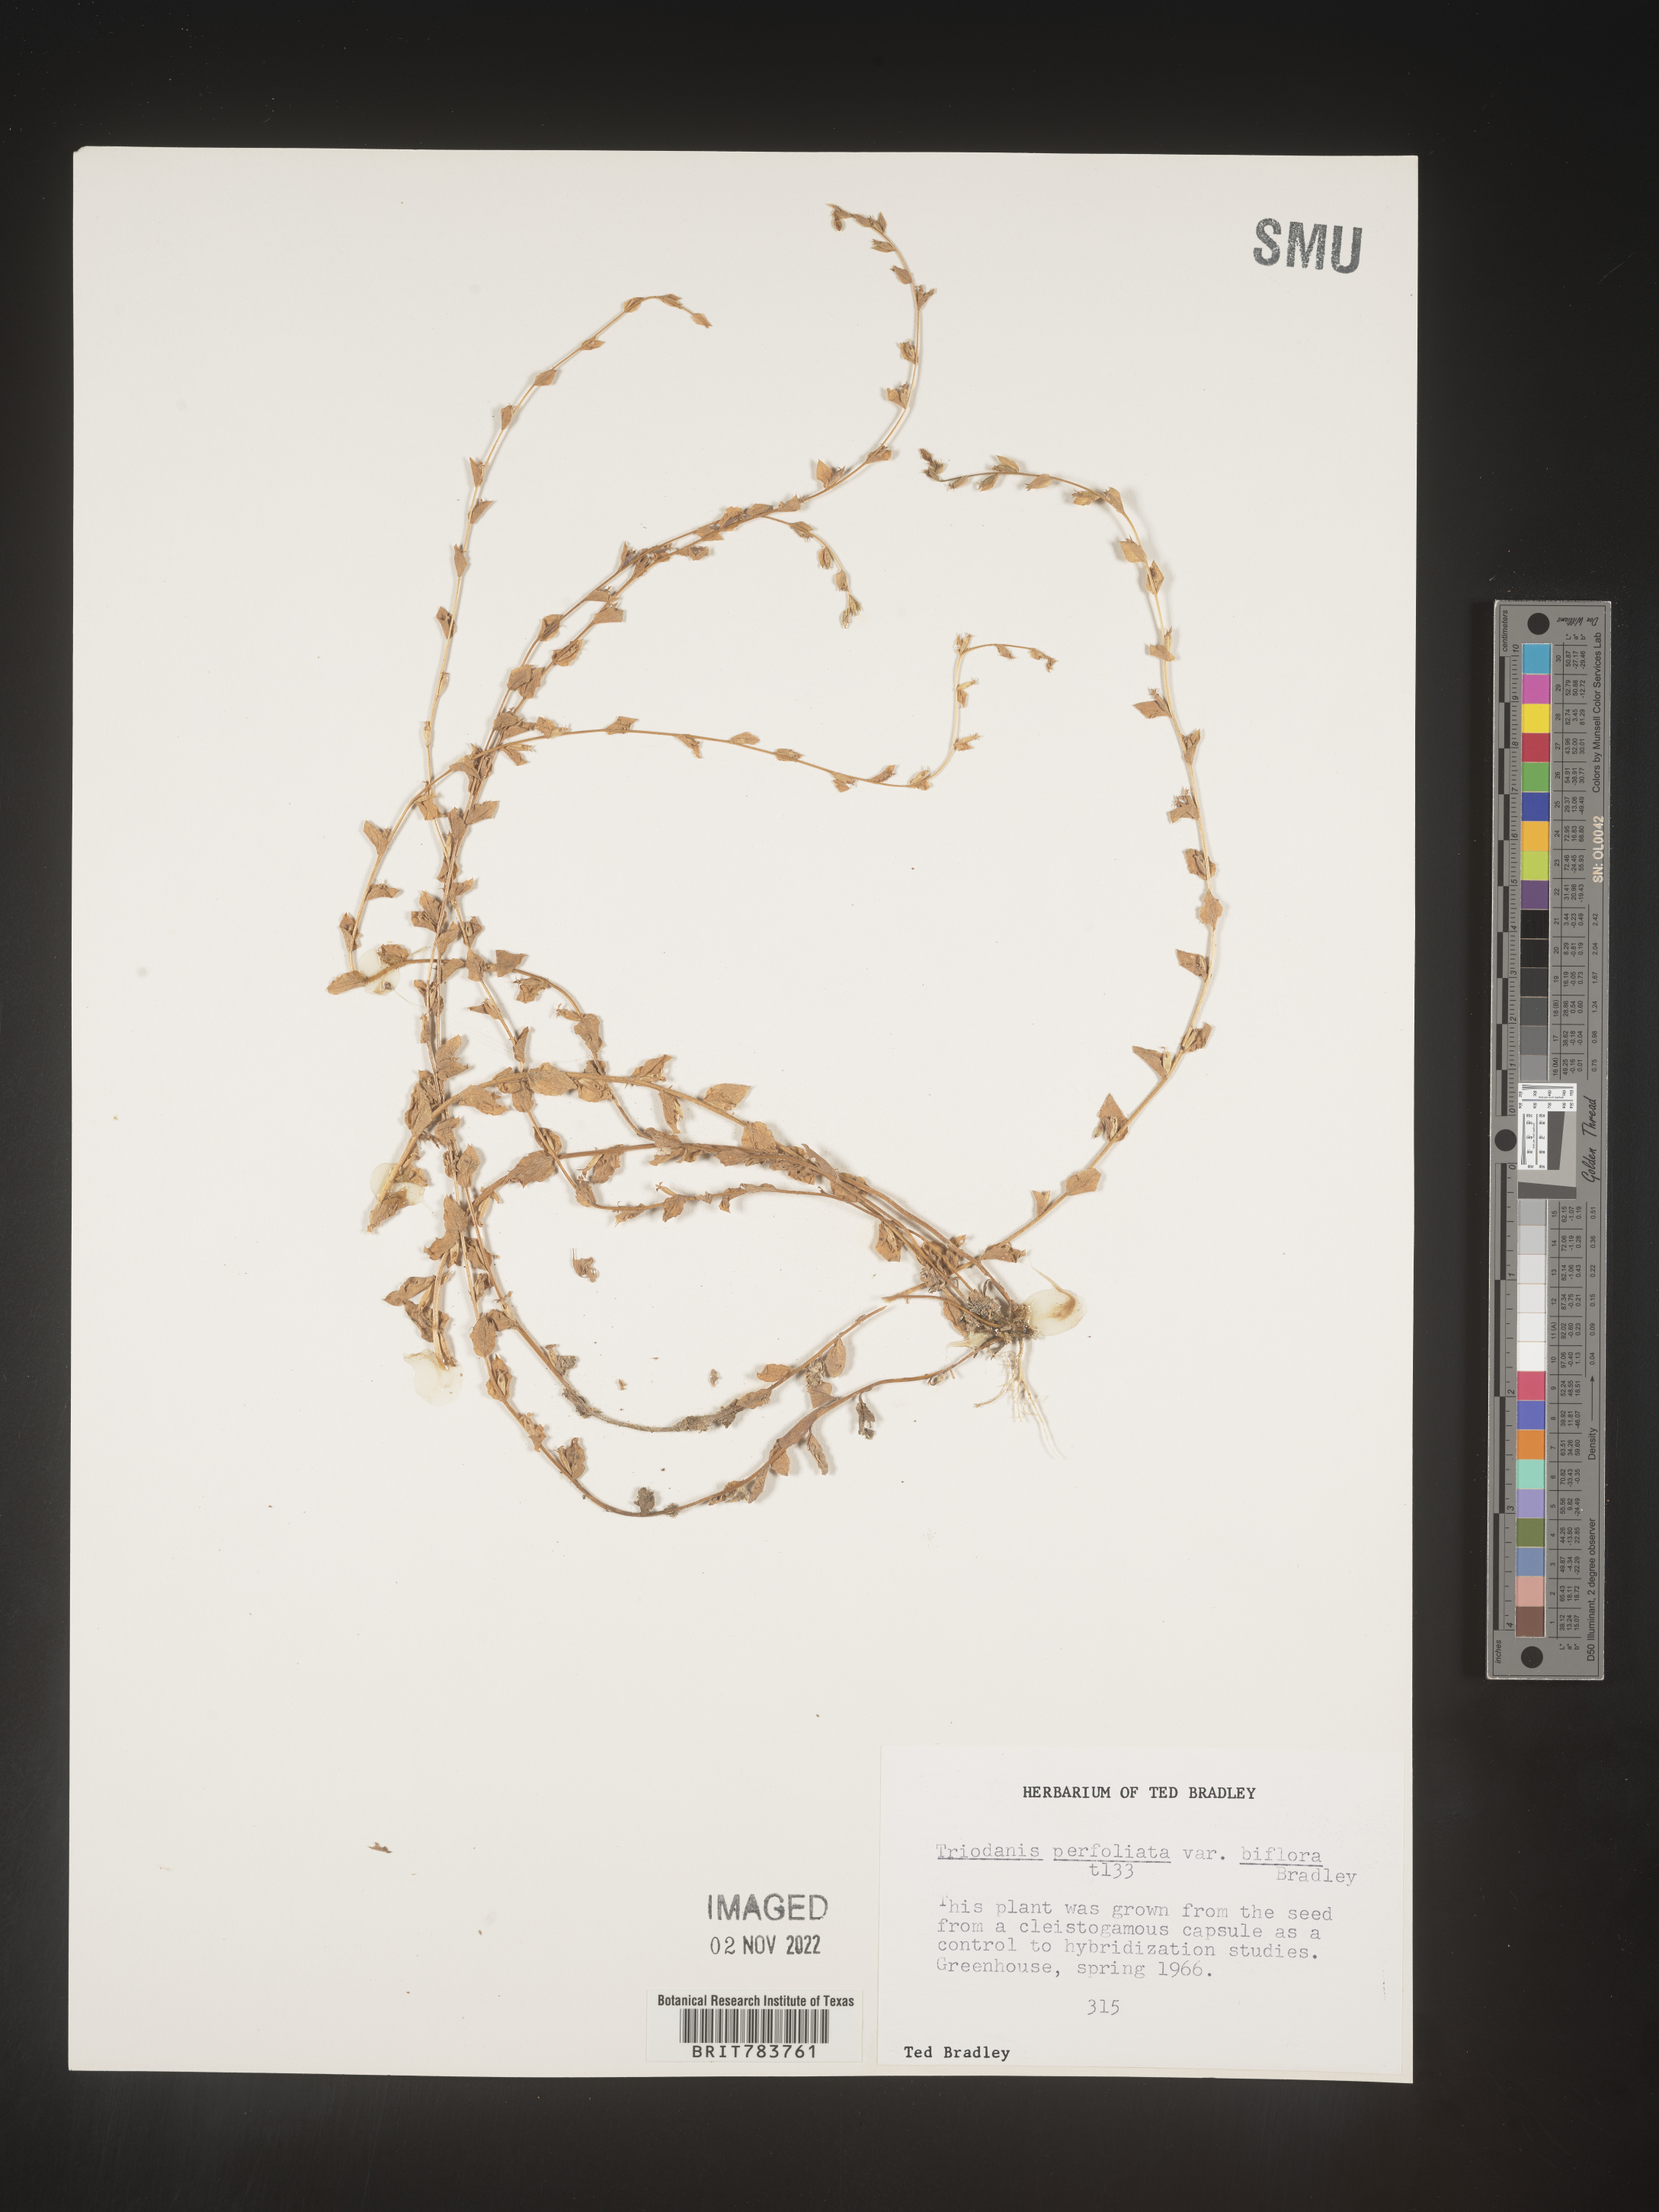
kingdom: Plantae
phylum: Tracheophyta
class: Magnoliopsida
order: Asterales
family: Campanulaceae
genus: Triodanis
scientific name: Triodanis
